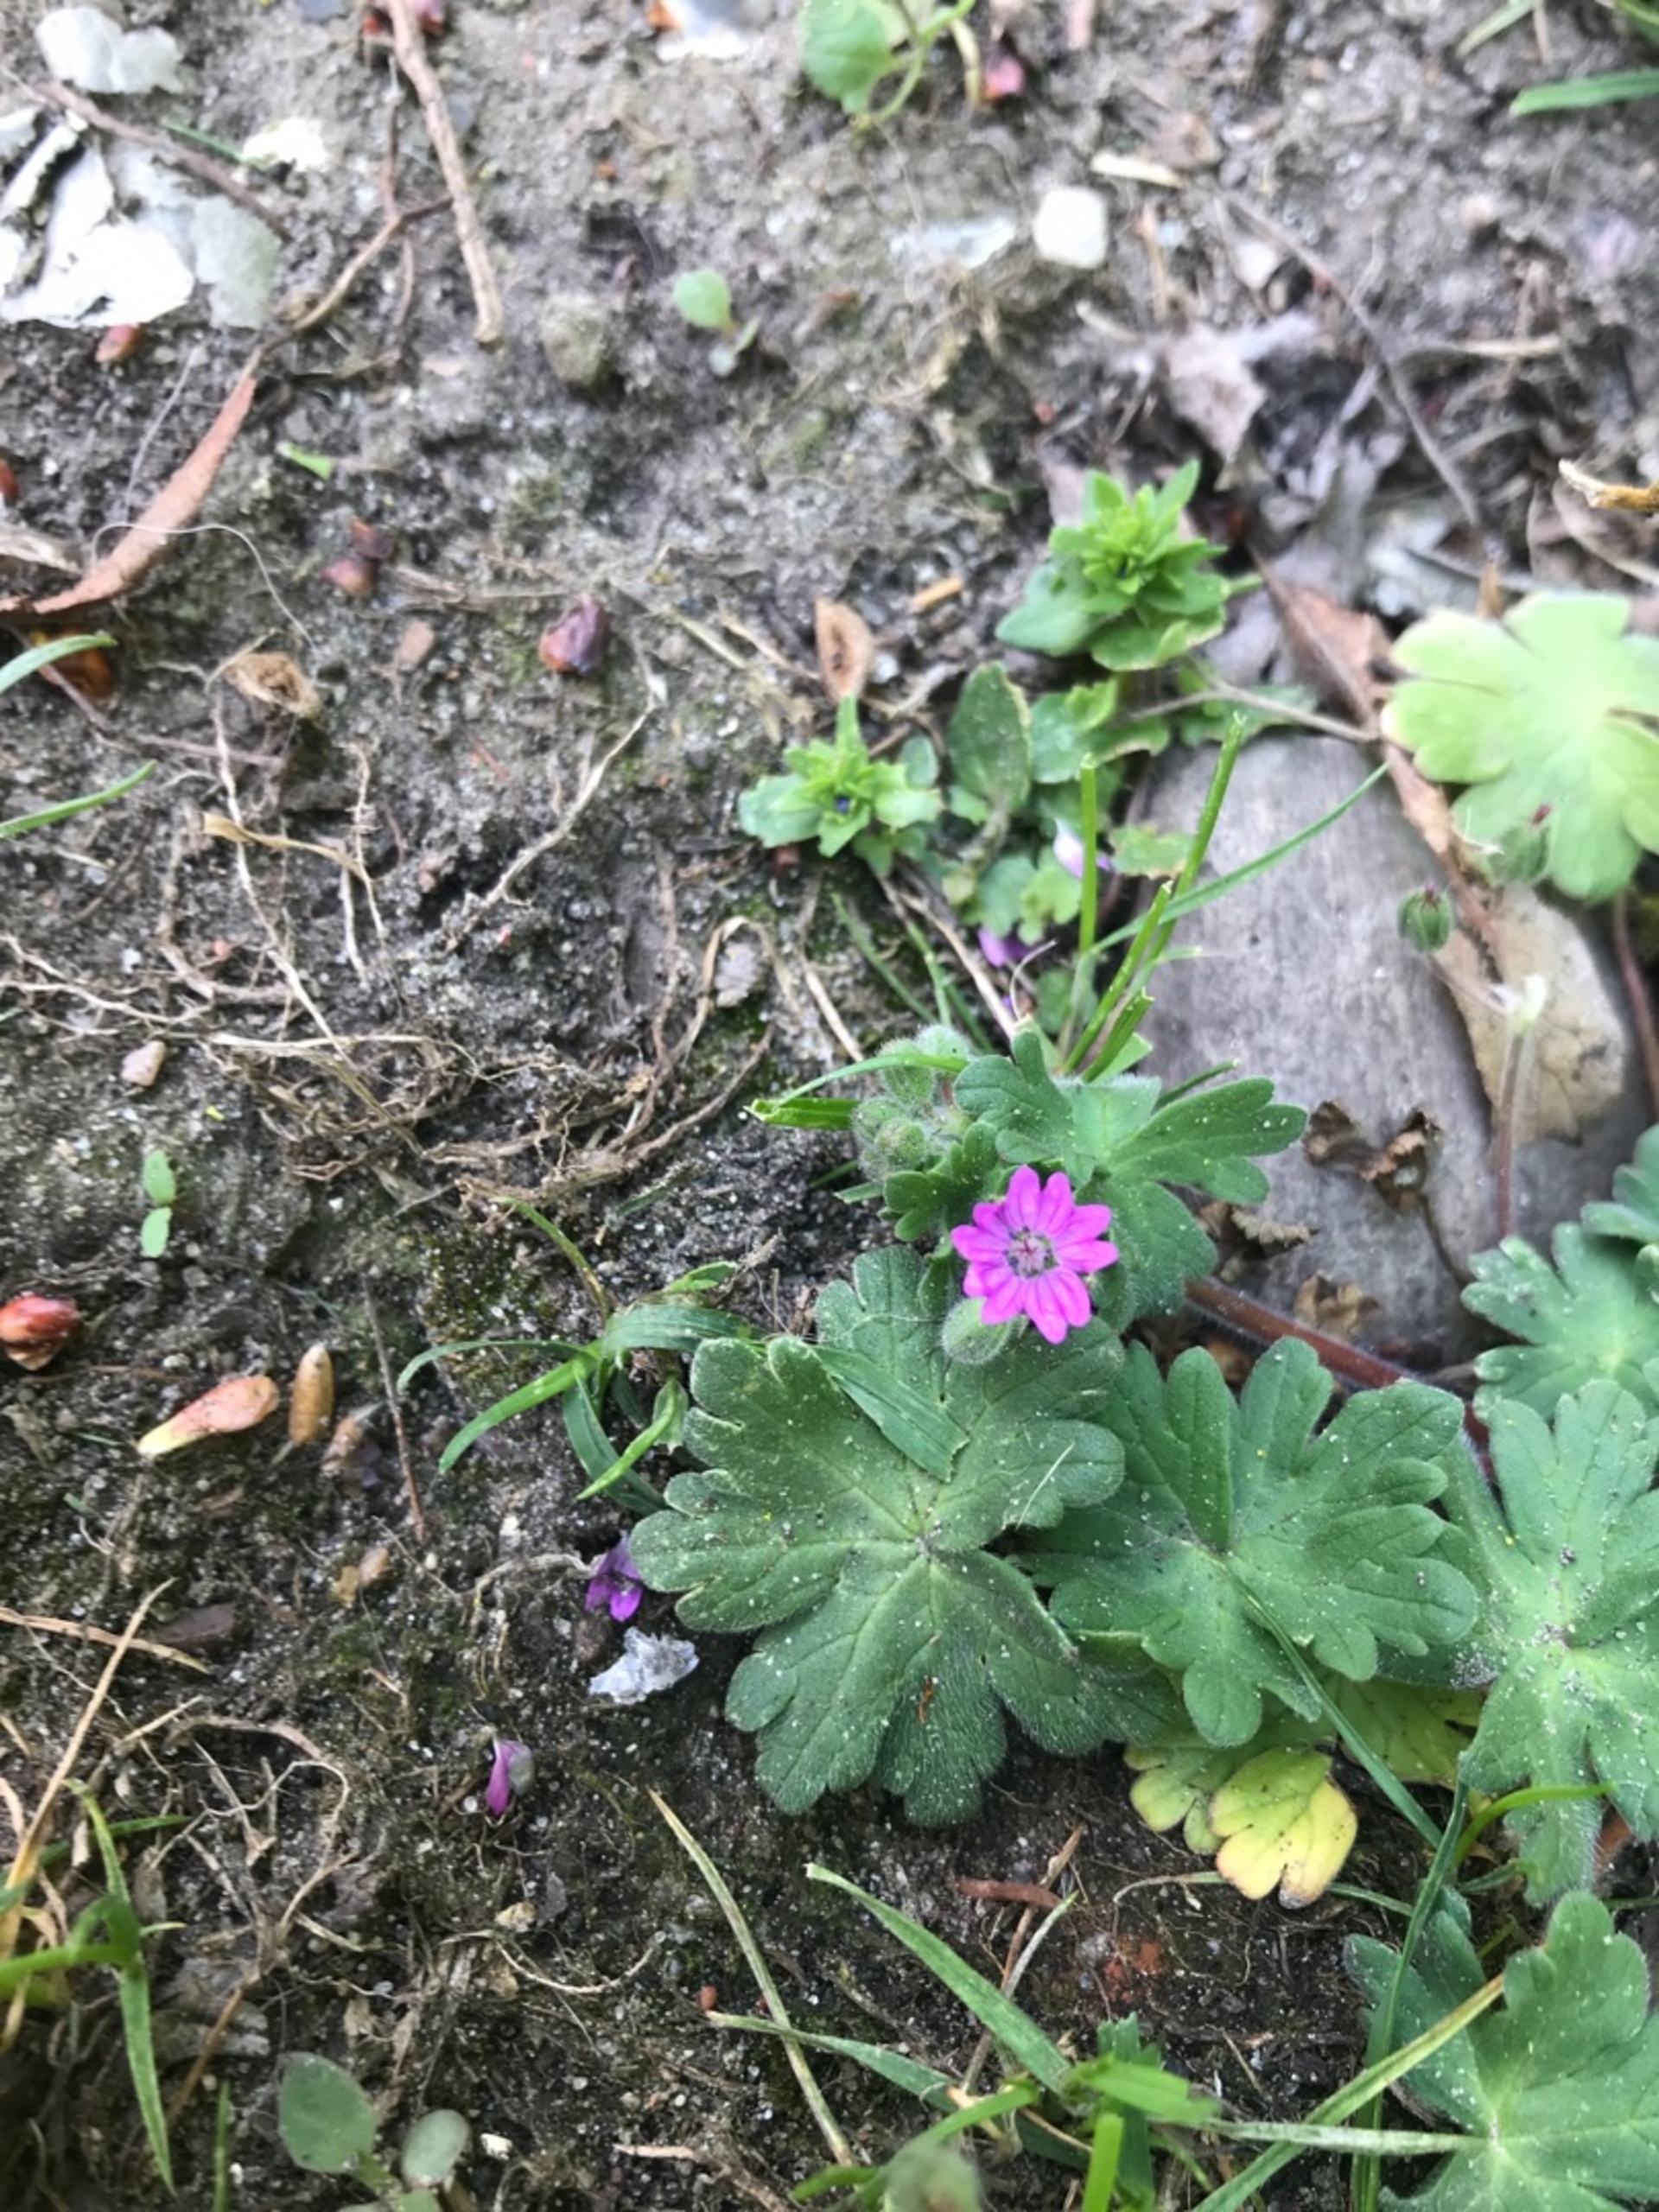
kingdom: Plantae
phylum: Tracheophyta
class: Magnoliopsida
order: Geraniales
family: Geraniaceae
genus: Geranium
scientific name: Geranium molle
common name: Blød storkenæb
